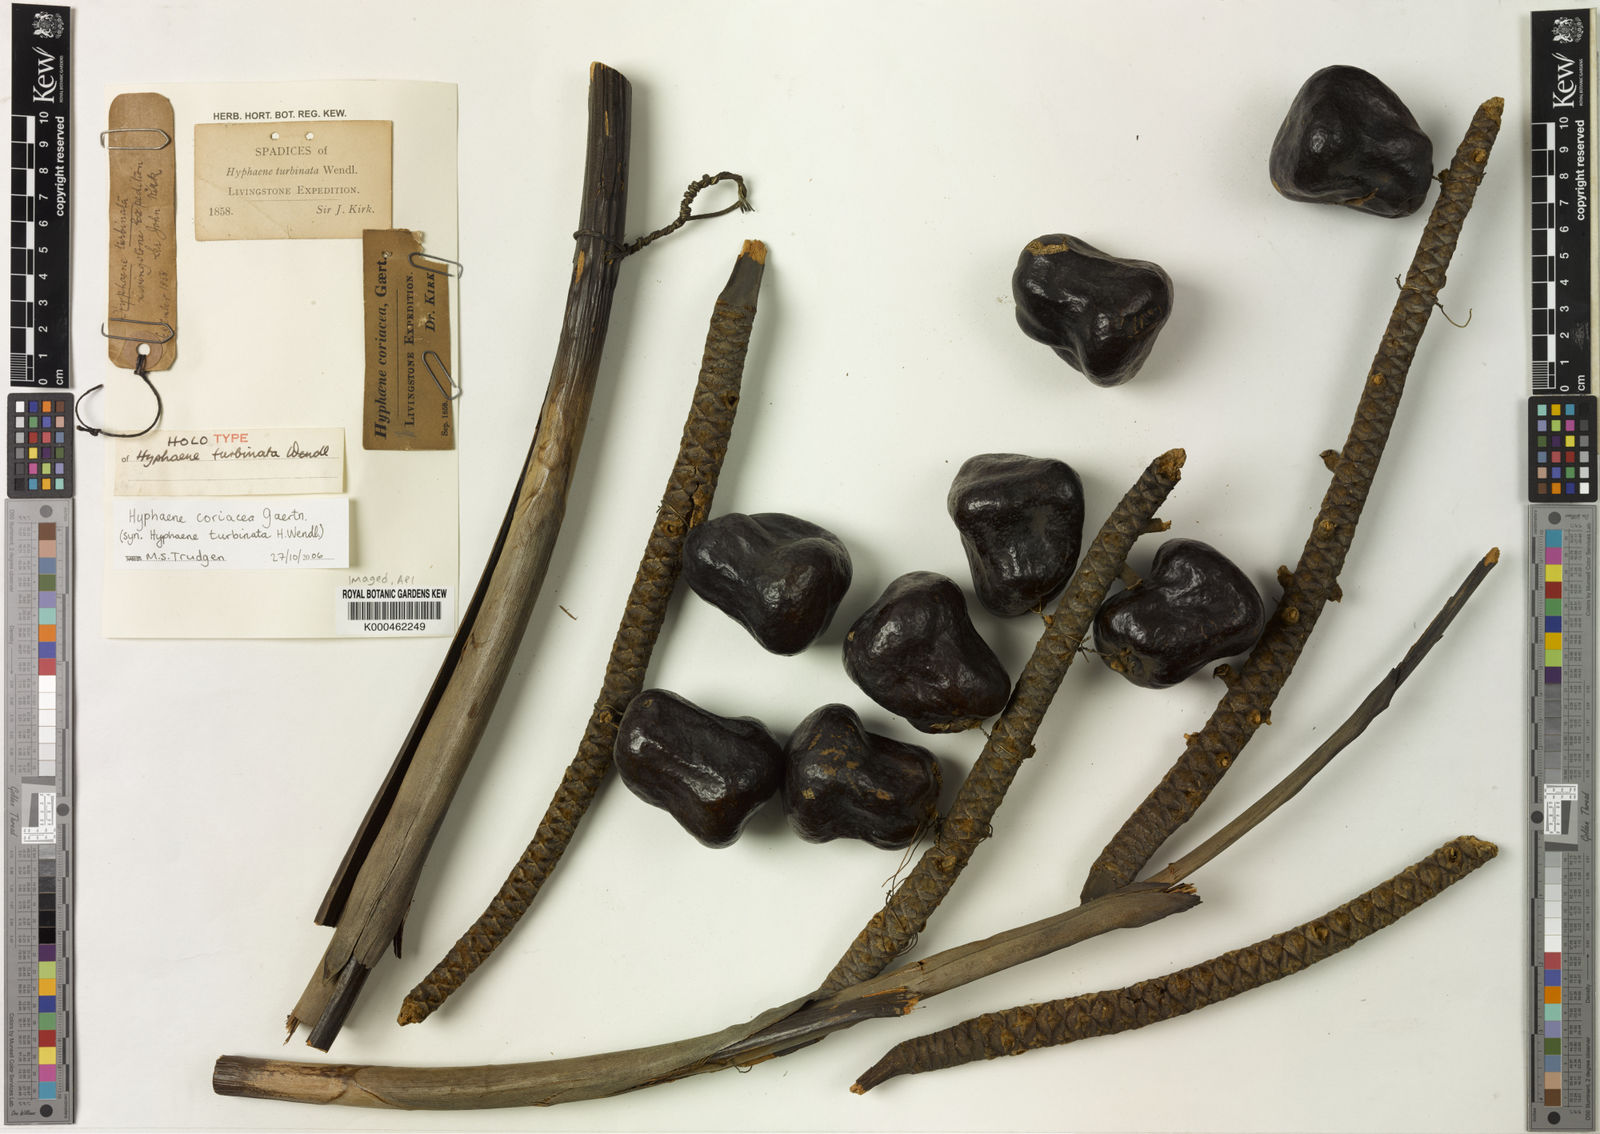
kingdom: Plantae
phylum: Tracheophyta
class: Liliopsida
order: Arecales
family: Arecaceae
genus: Hyphaene
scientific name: Hyphaene coriacea
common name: Ilala palm
